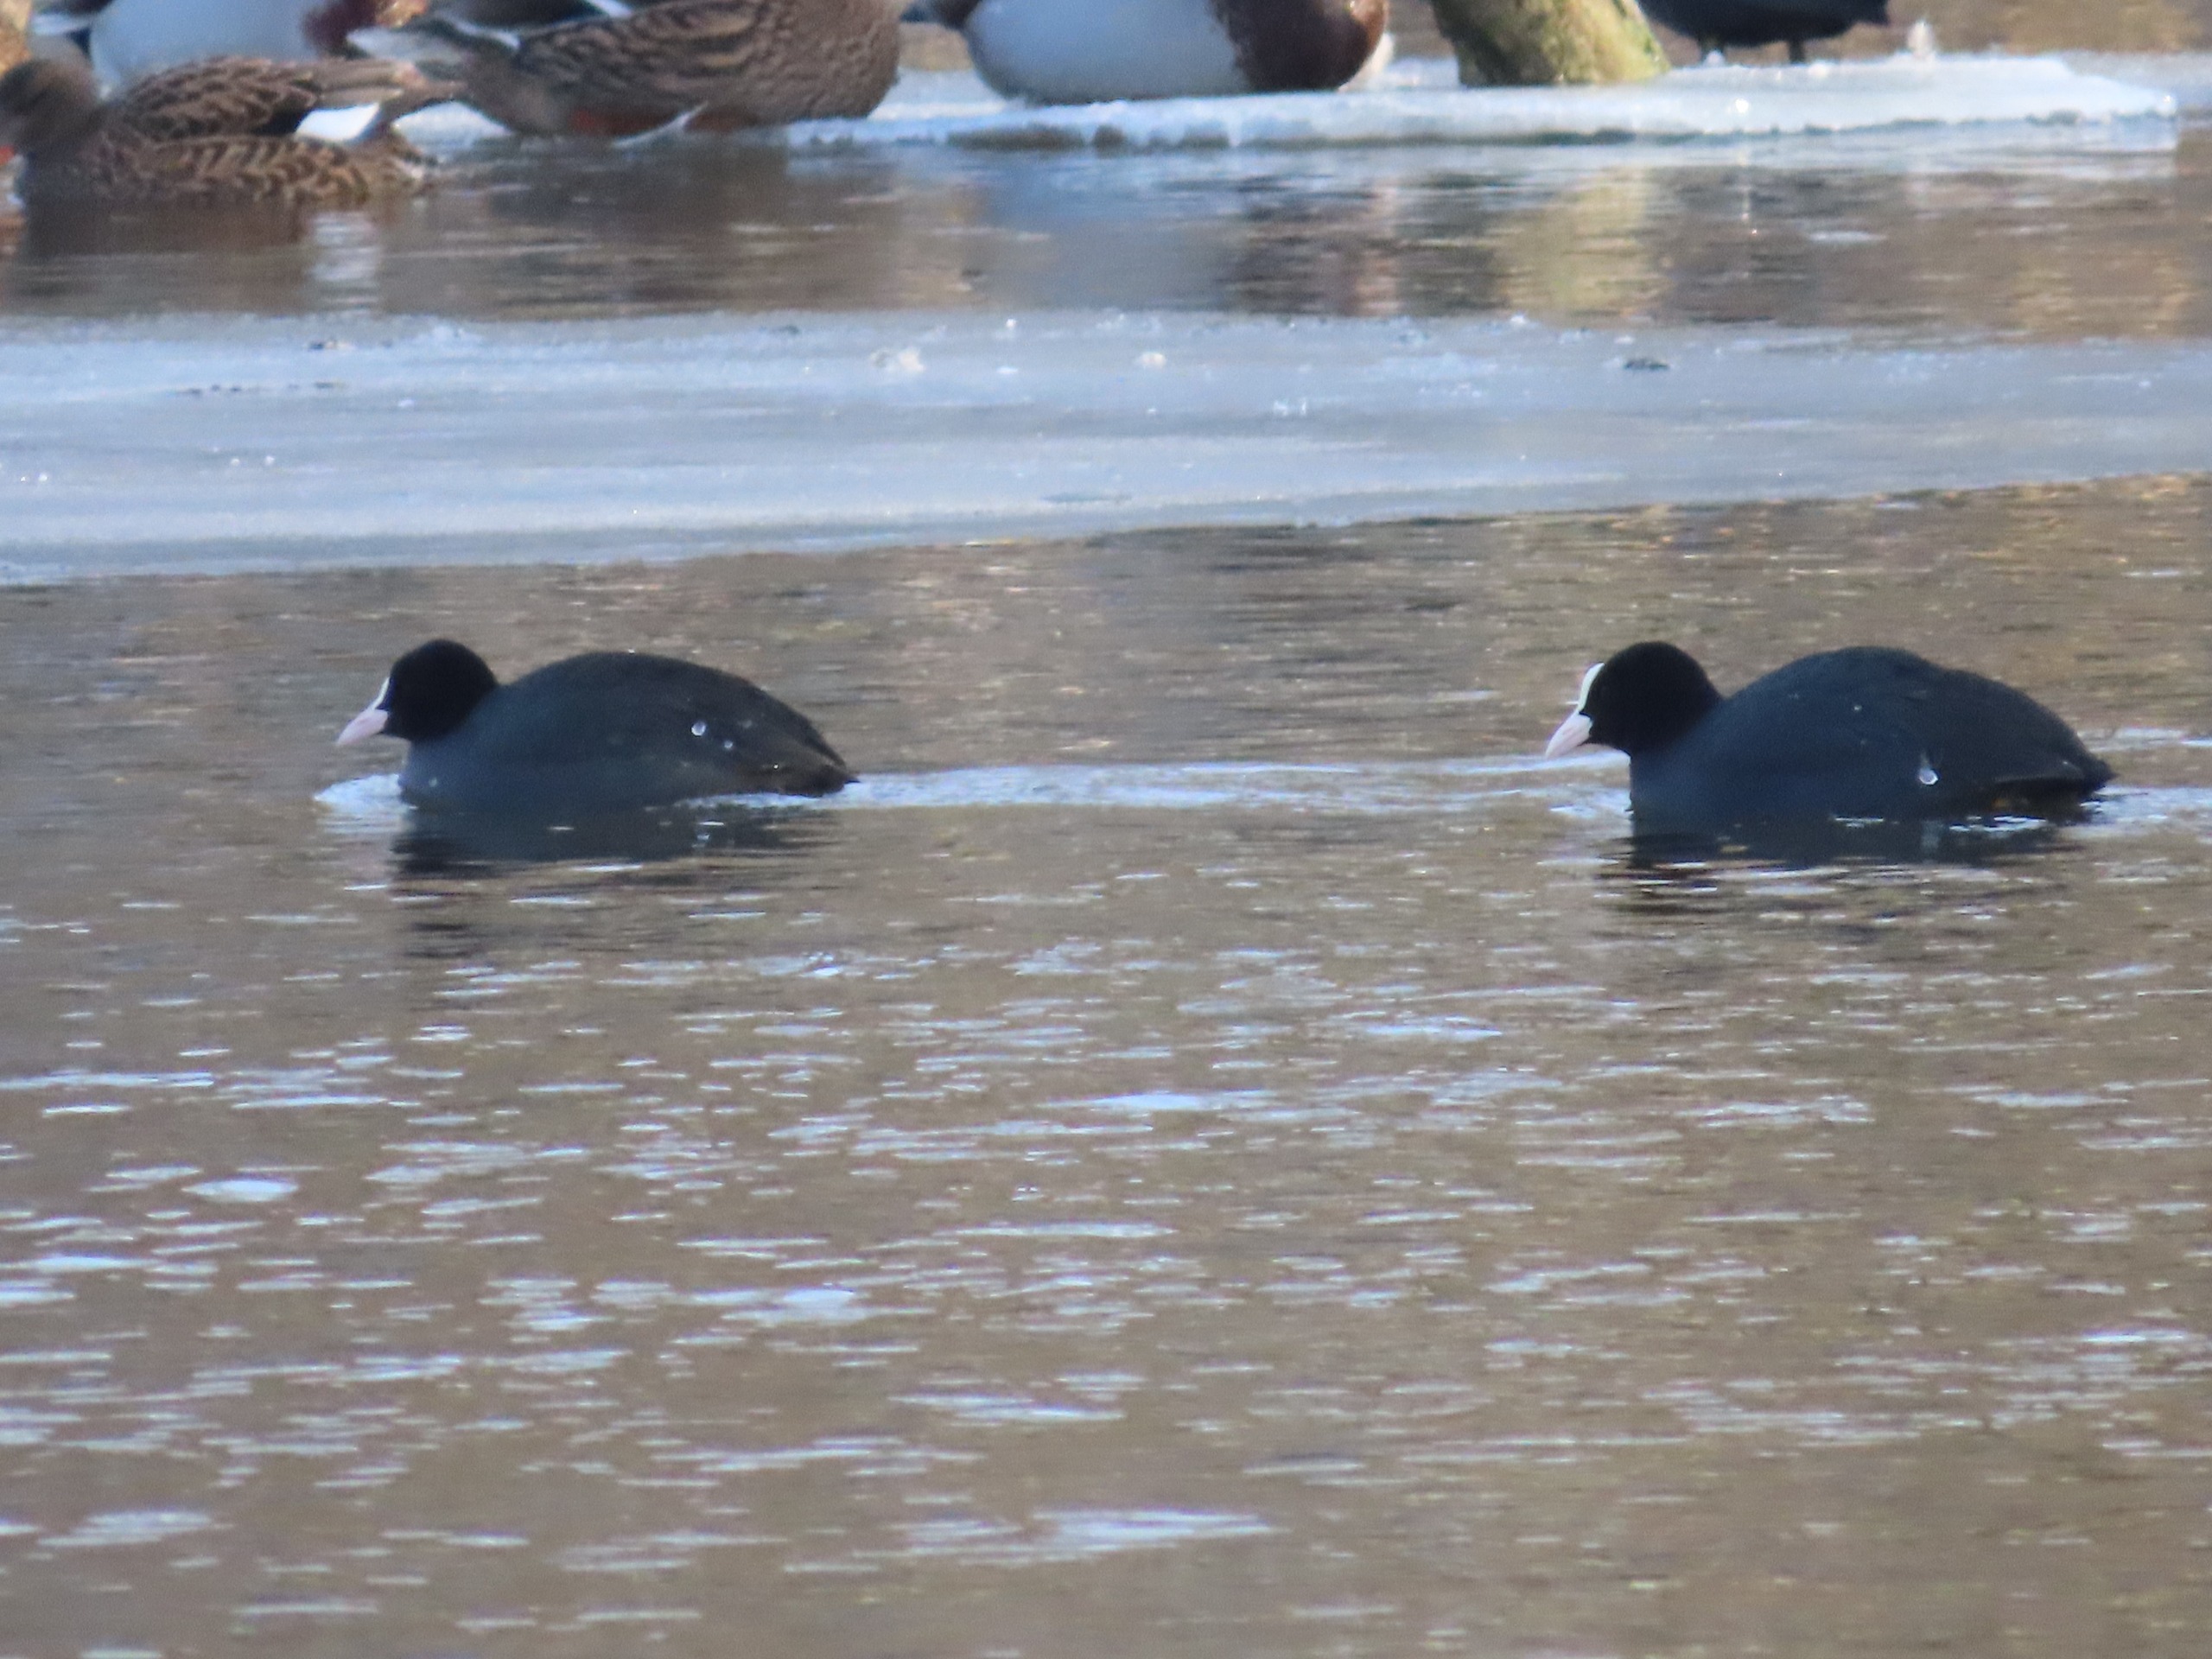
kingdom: Animalia
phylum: Chordata
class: Aves
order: Gruiformes
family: Rallidae
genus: Fulica
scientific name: Fulica atra
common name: Blishøne
